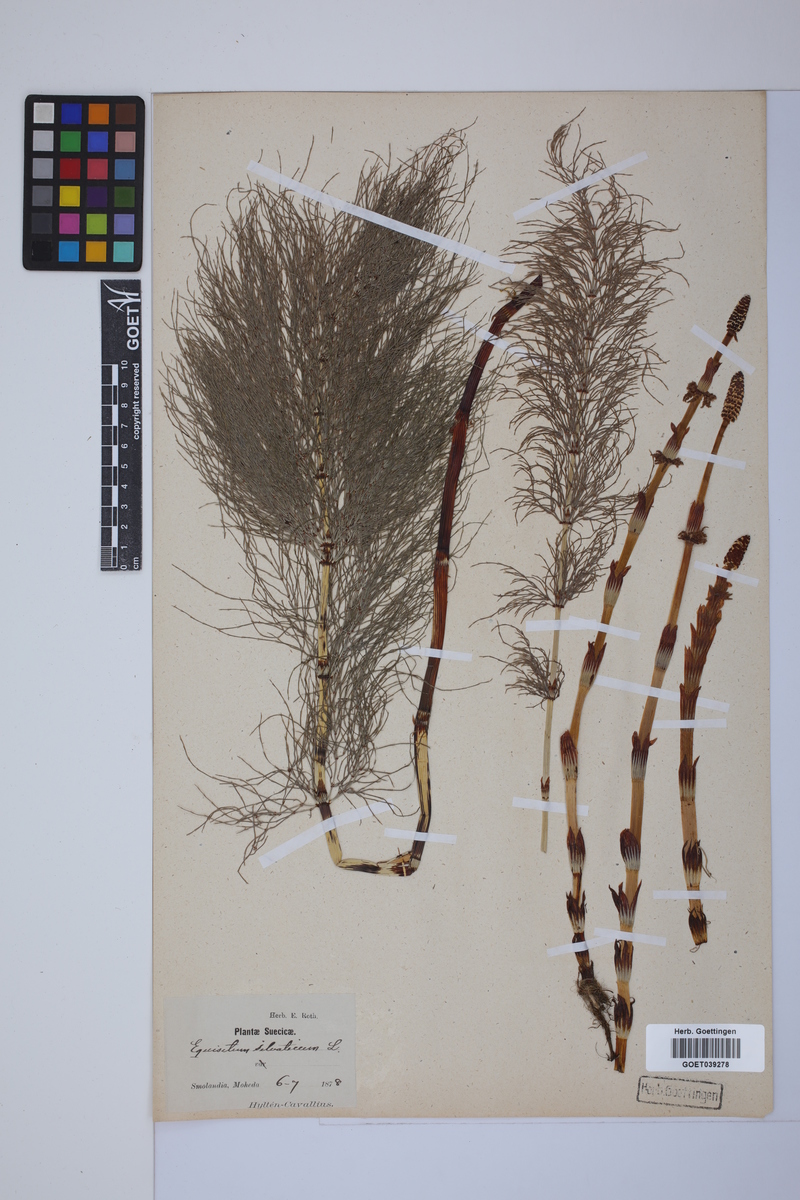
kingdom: Plantae
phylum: Tracheophyta
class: Polypodiopsida
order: Equisetales
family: Equisetaceae
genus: Equisetum
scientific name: Equisetum sylvaticum
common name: Wood horsetail
